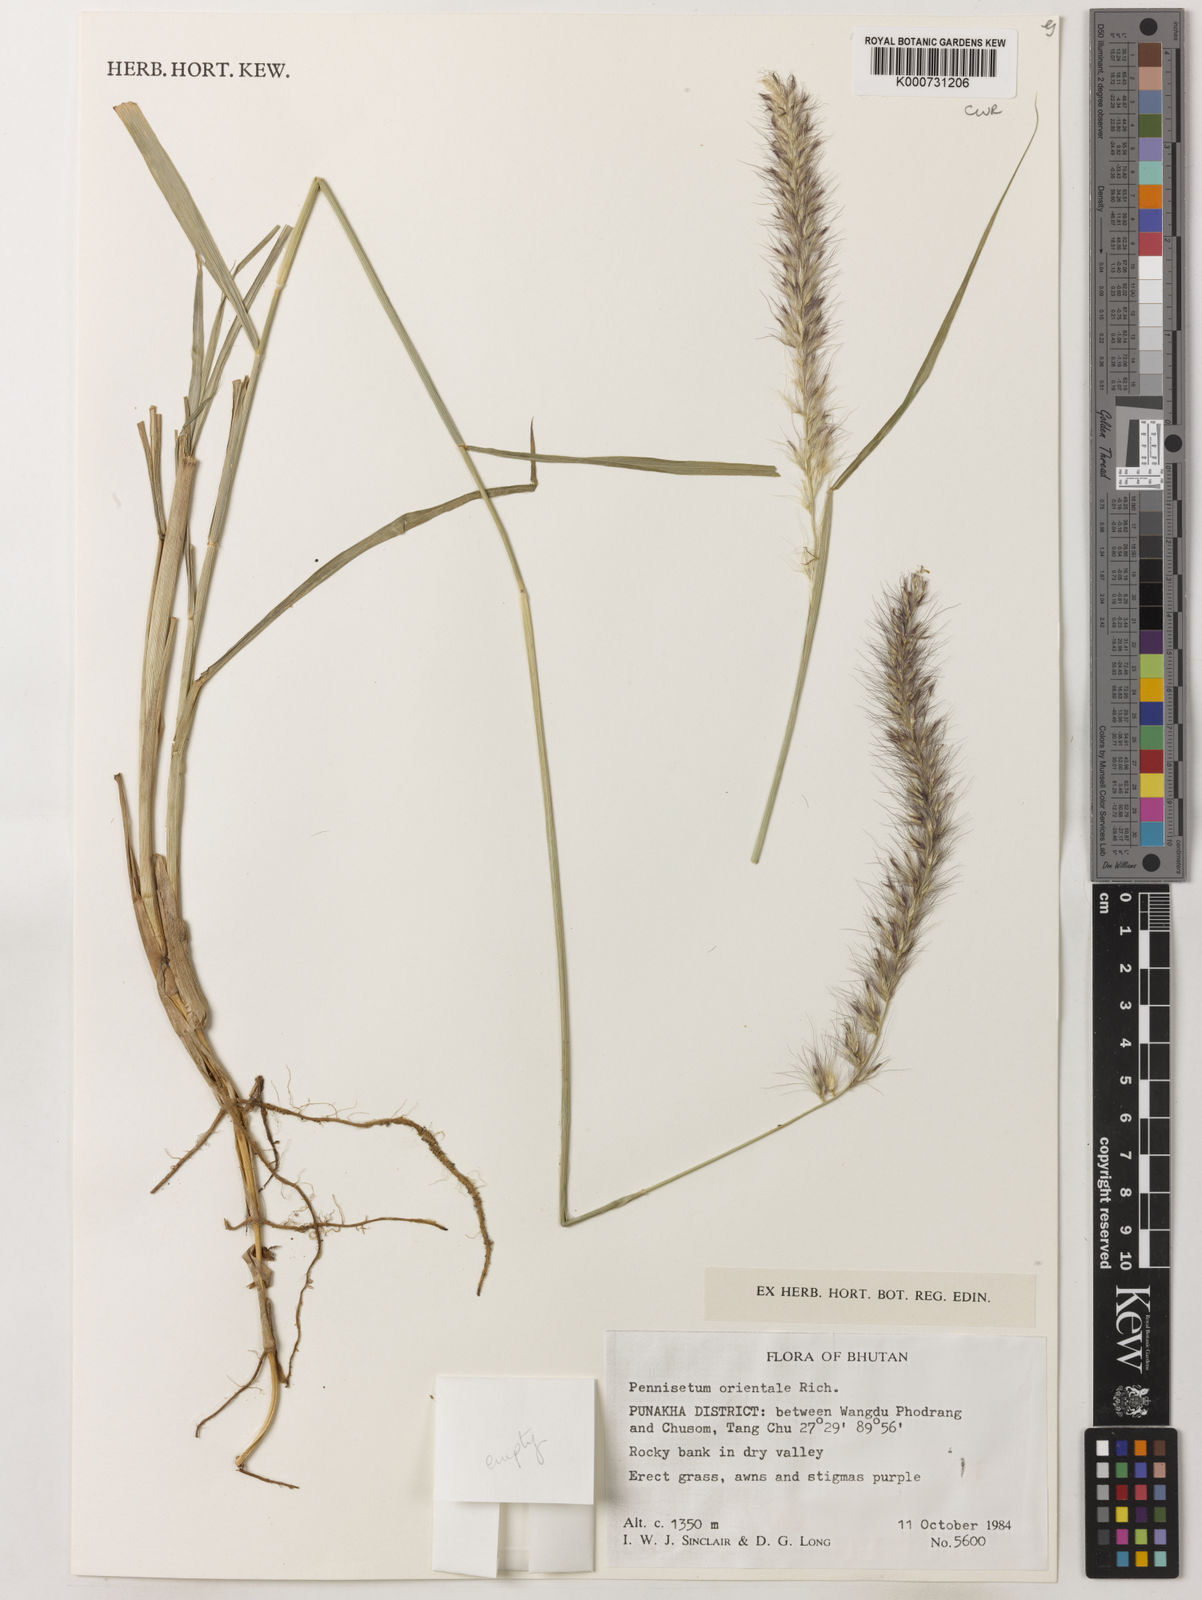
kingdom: Plantae
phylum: Tracheophyta
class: Liliopsida
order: Poales
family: Poaceae
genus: Cenchrus
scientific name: Cenchrus orientalis
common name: Oriental fountain grass
